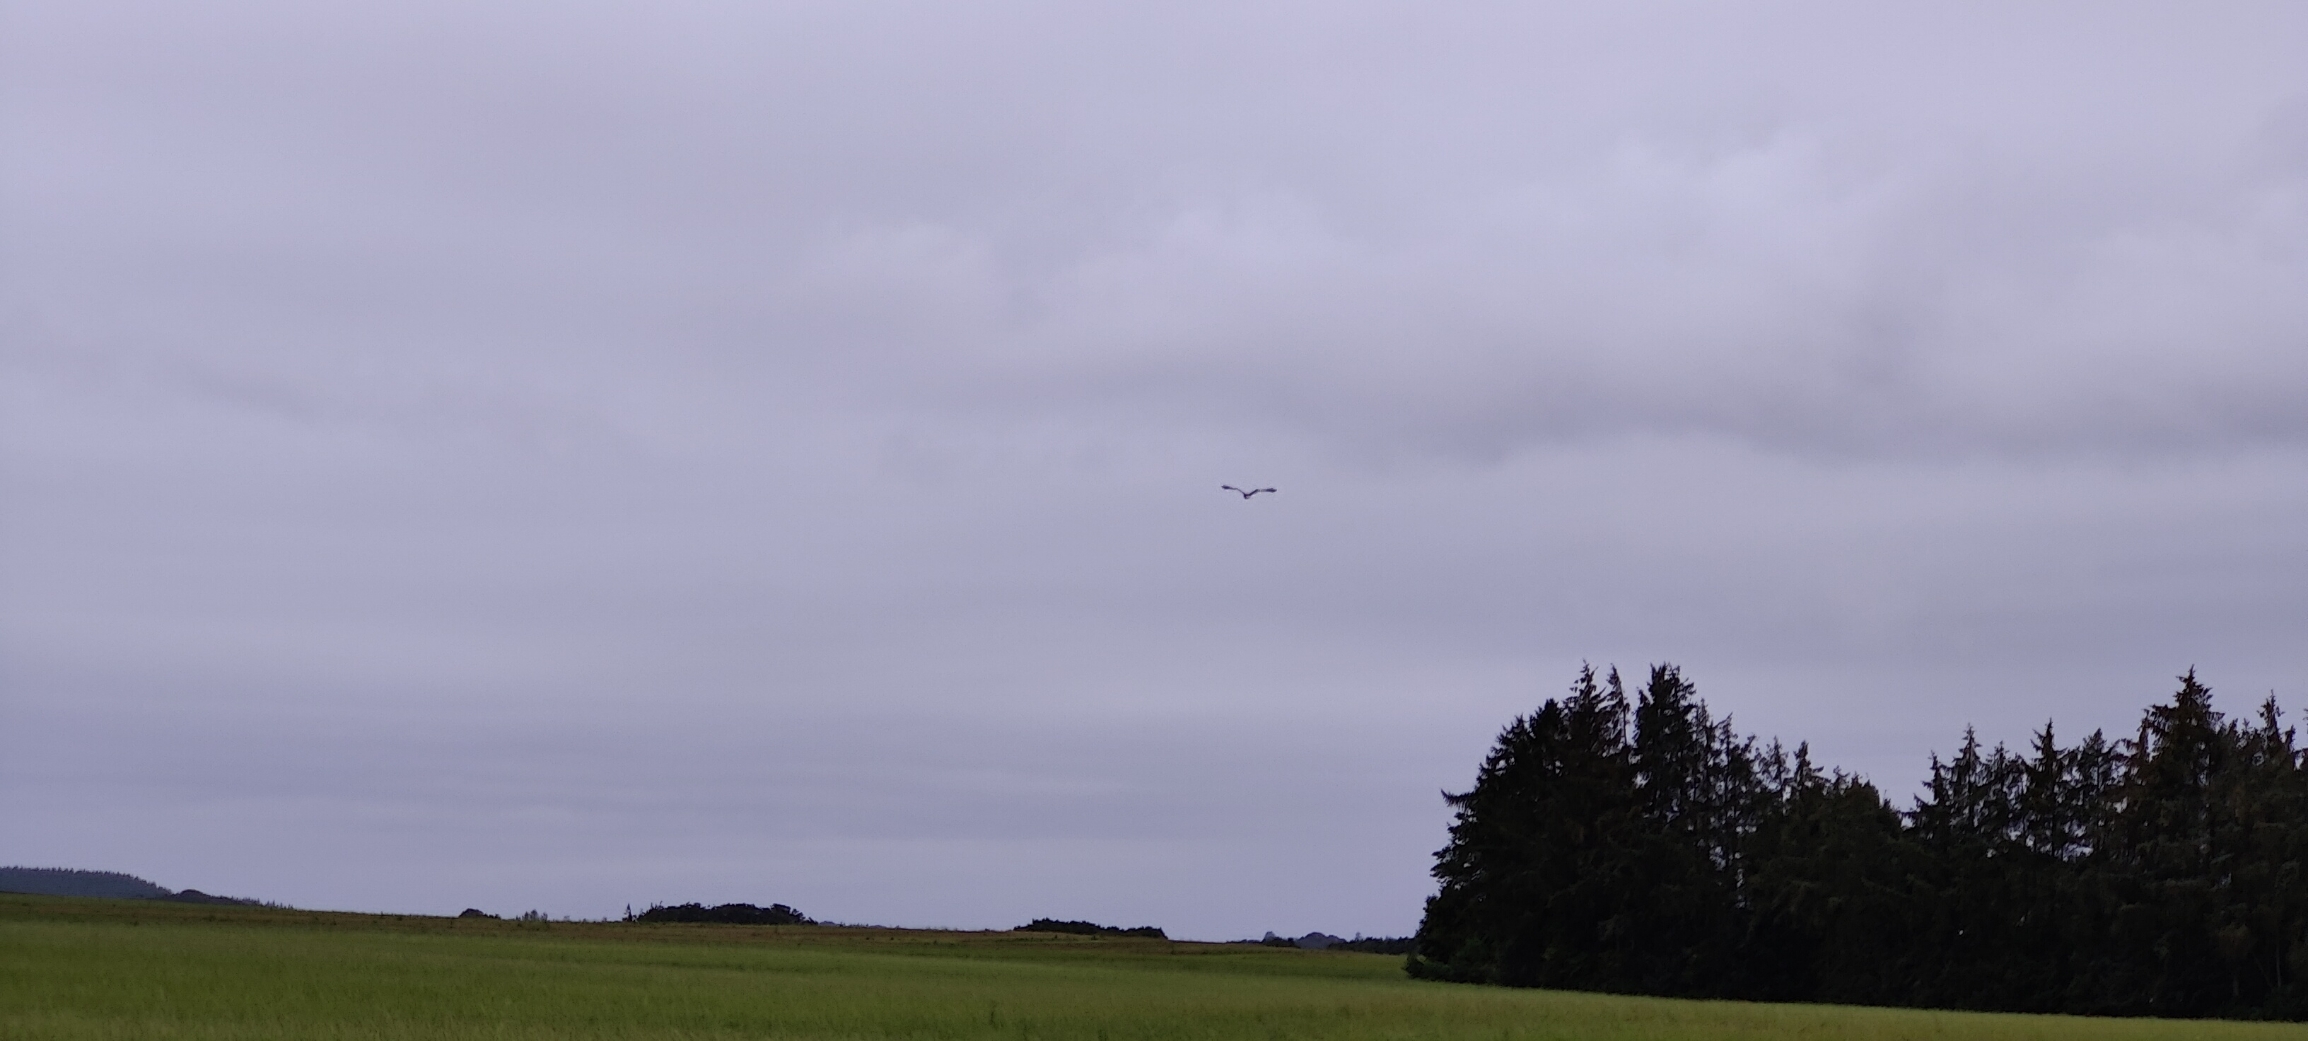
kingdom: Animalia
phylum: Chordata
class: Aves
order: Accipitriformes
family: Accipitridae
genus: Circus
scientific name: Circus aeruginosus
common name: Rørhøg
